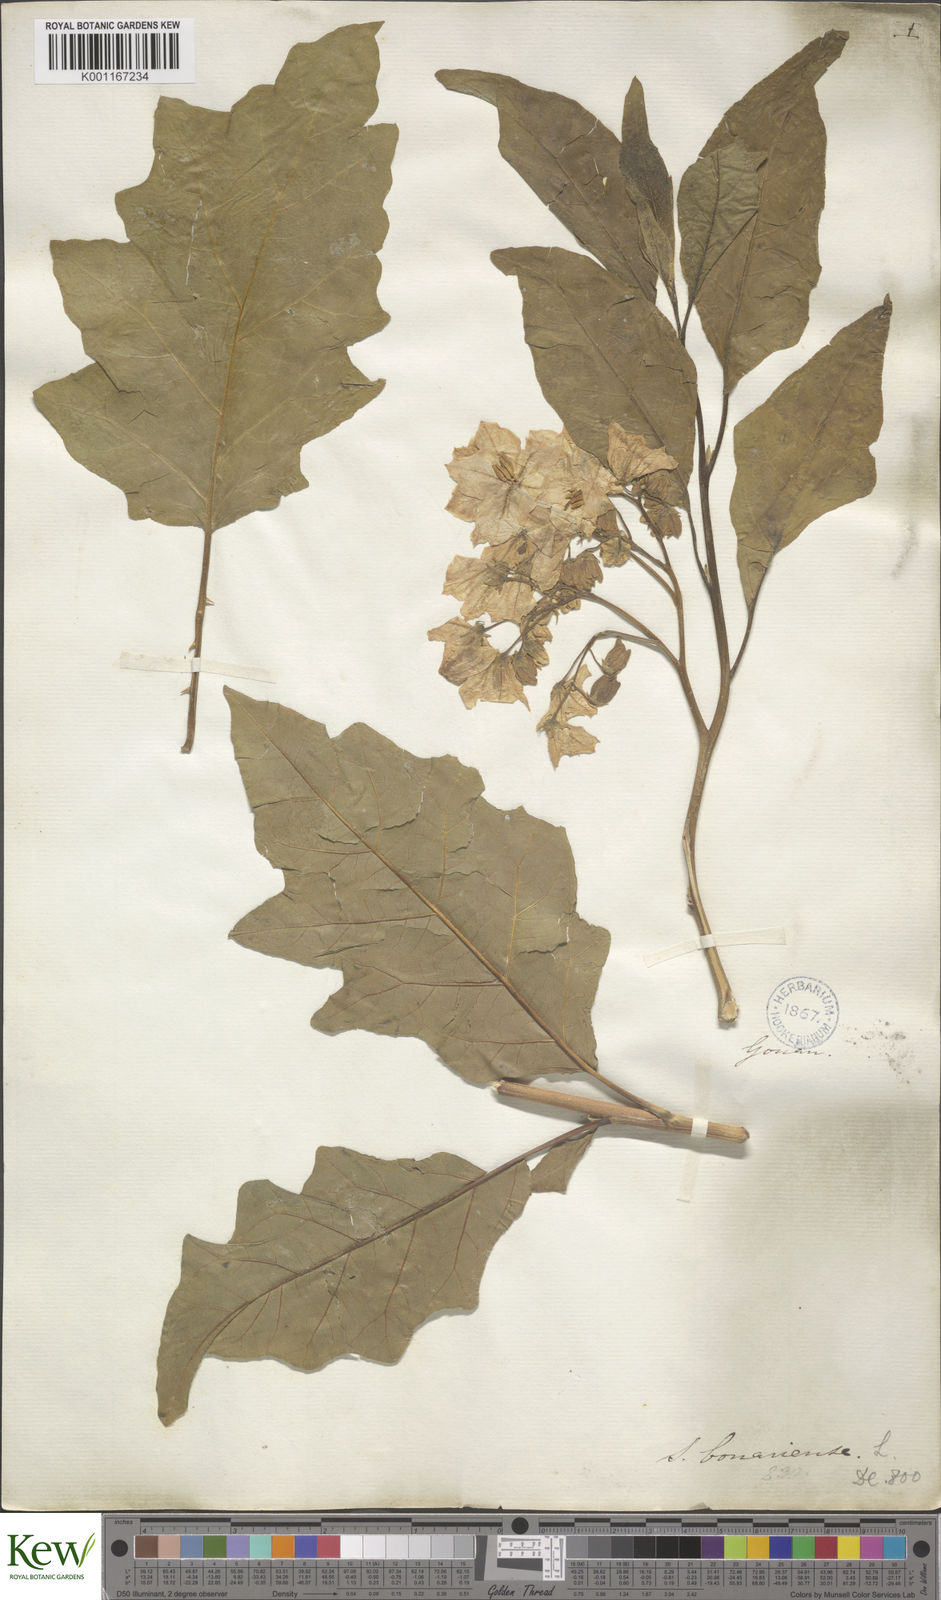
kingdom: Plantae
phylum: Tracheophyta
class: Magnoliopsida
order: Solanales
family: Solanaceae
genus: Solanum
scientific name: Solanum bonariense
